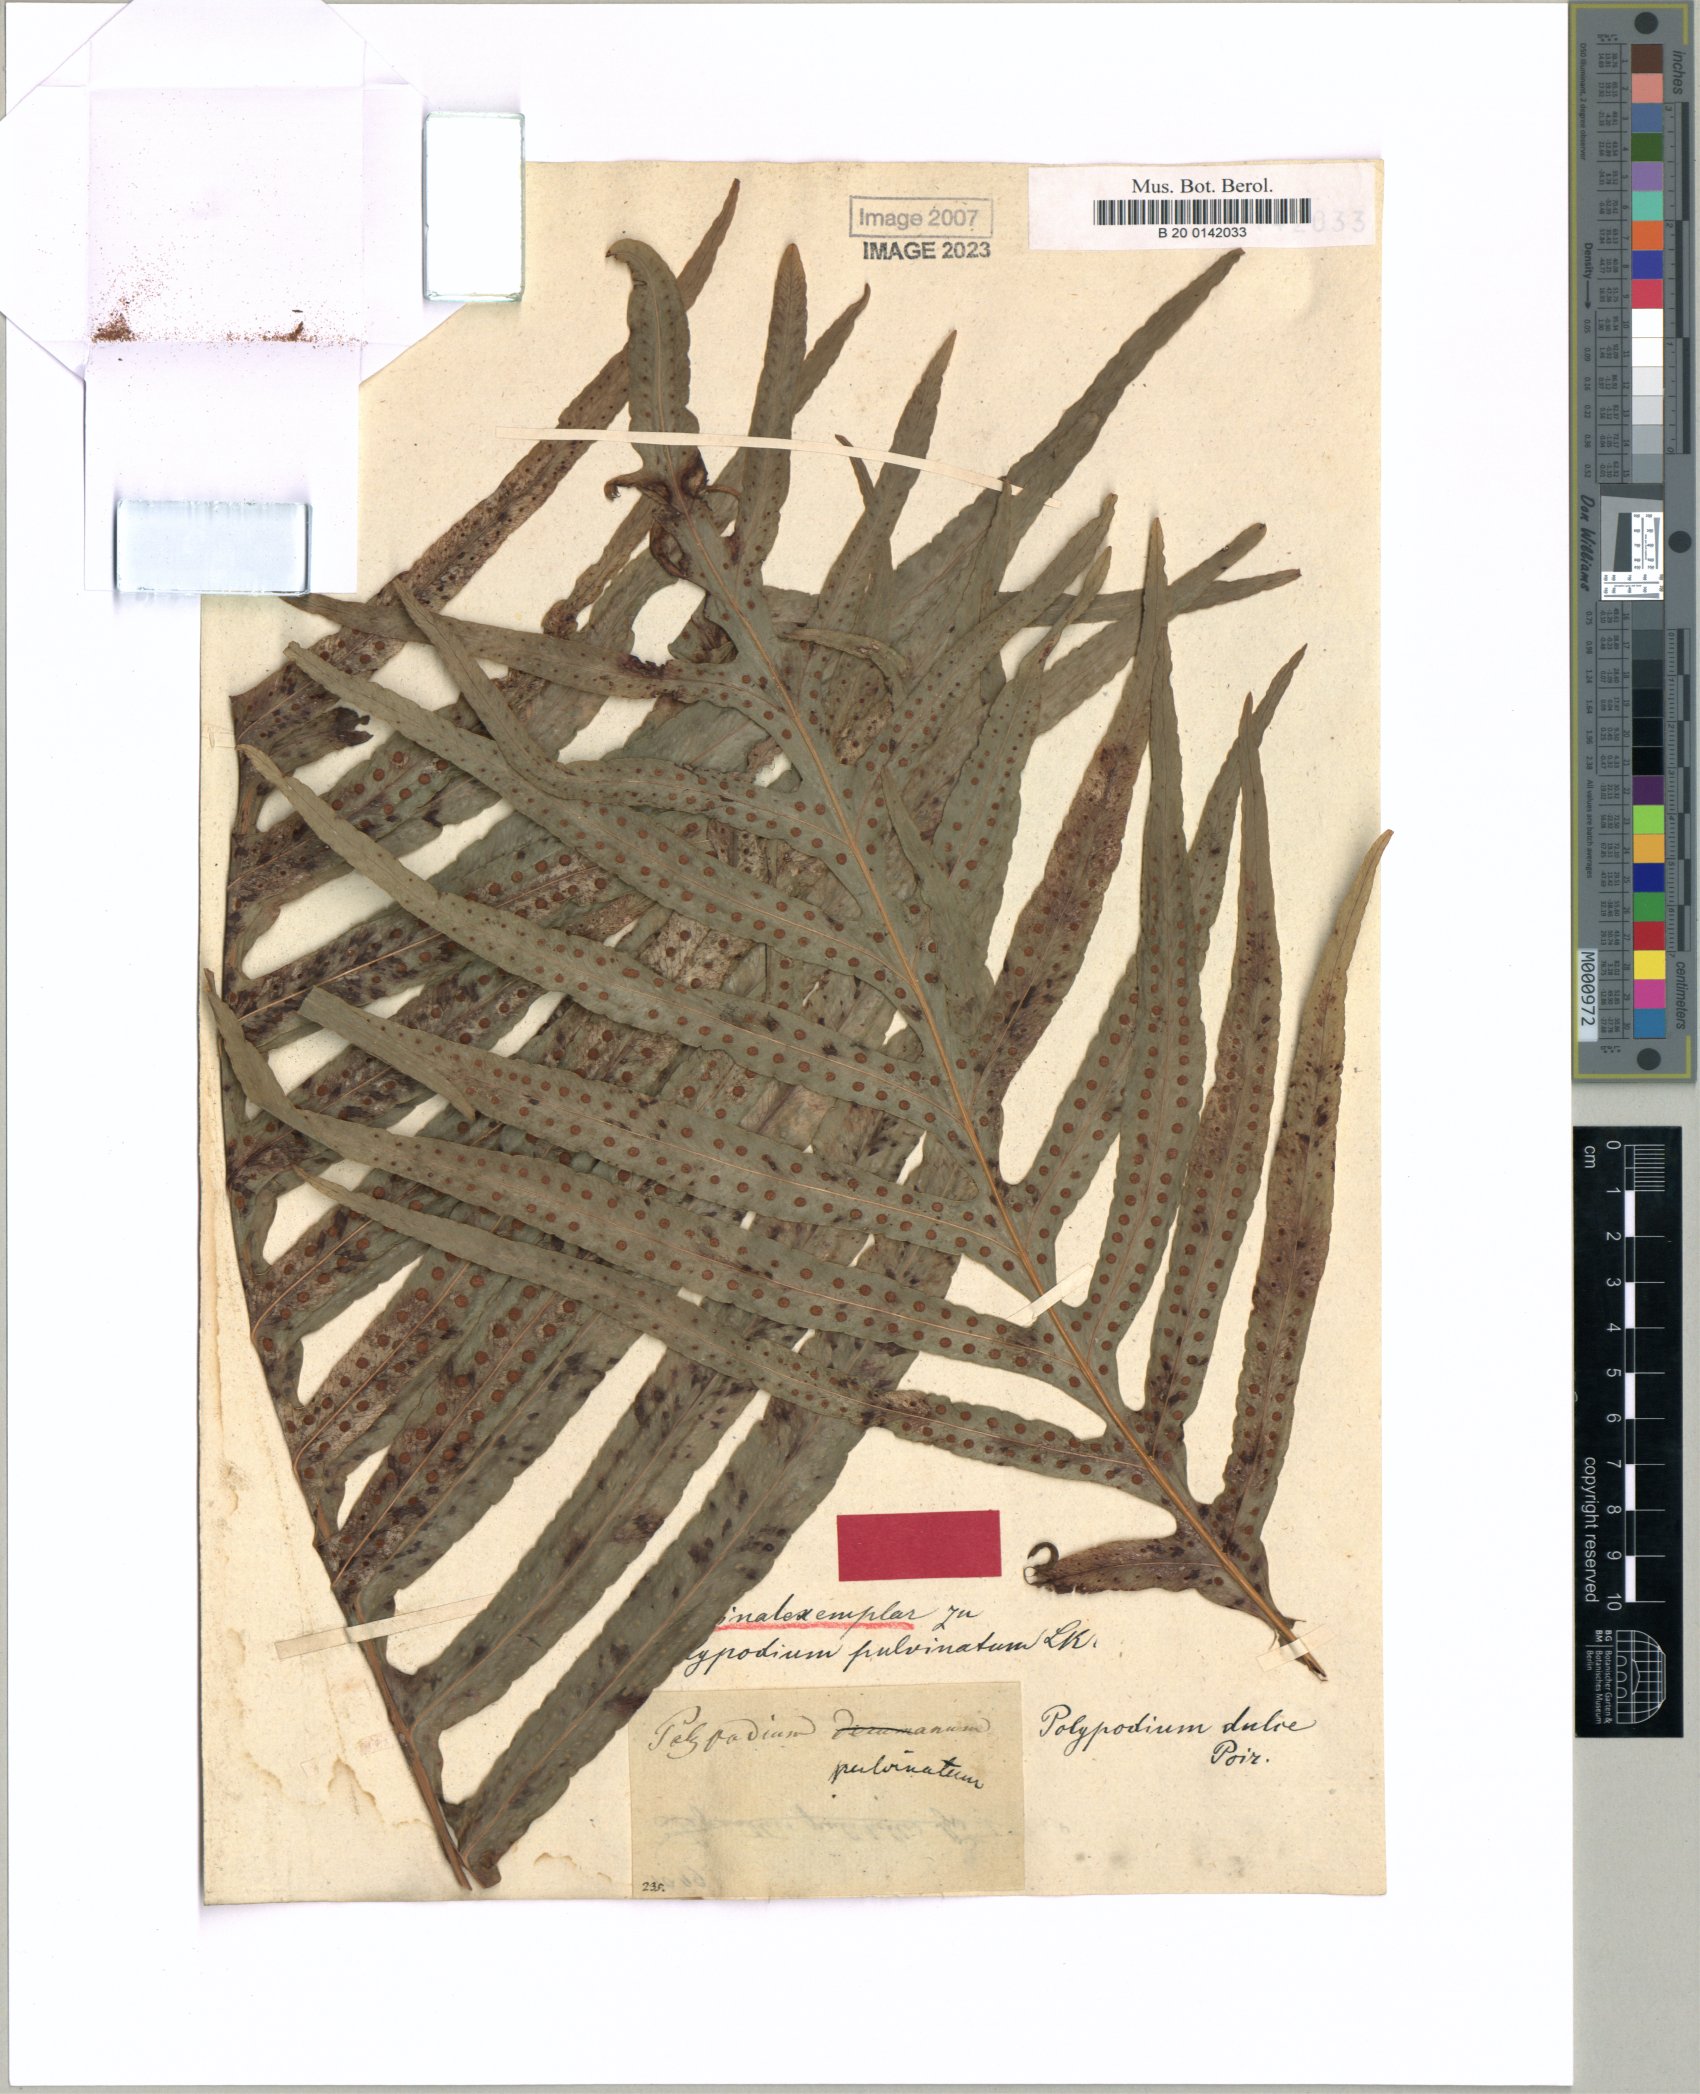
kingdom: Plantae
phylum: Tracheophyta
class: Polypodiopsida
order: Polypodiales
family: Polypodiaceae
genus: Phlebodium
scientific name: Phlebodium aureum
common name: Gold-foot fern
